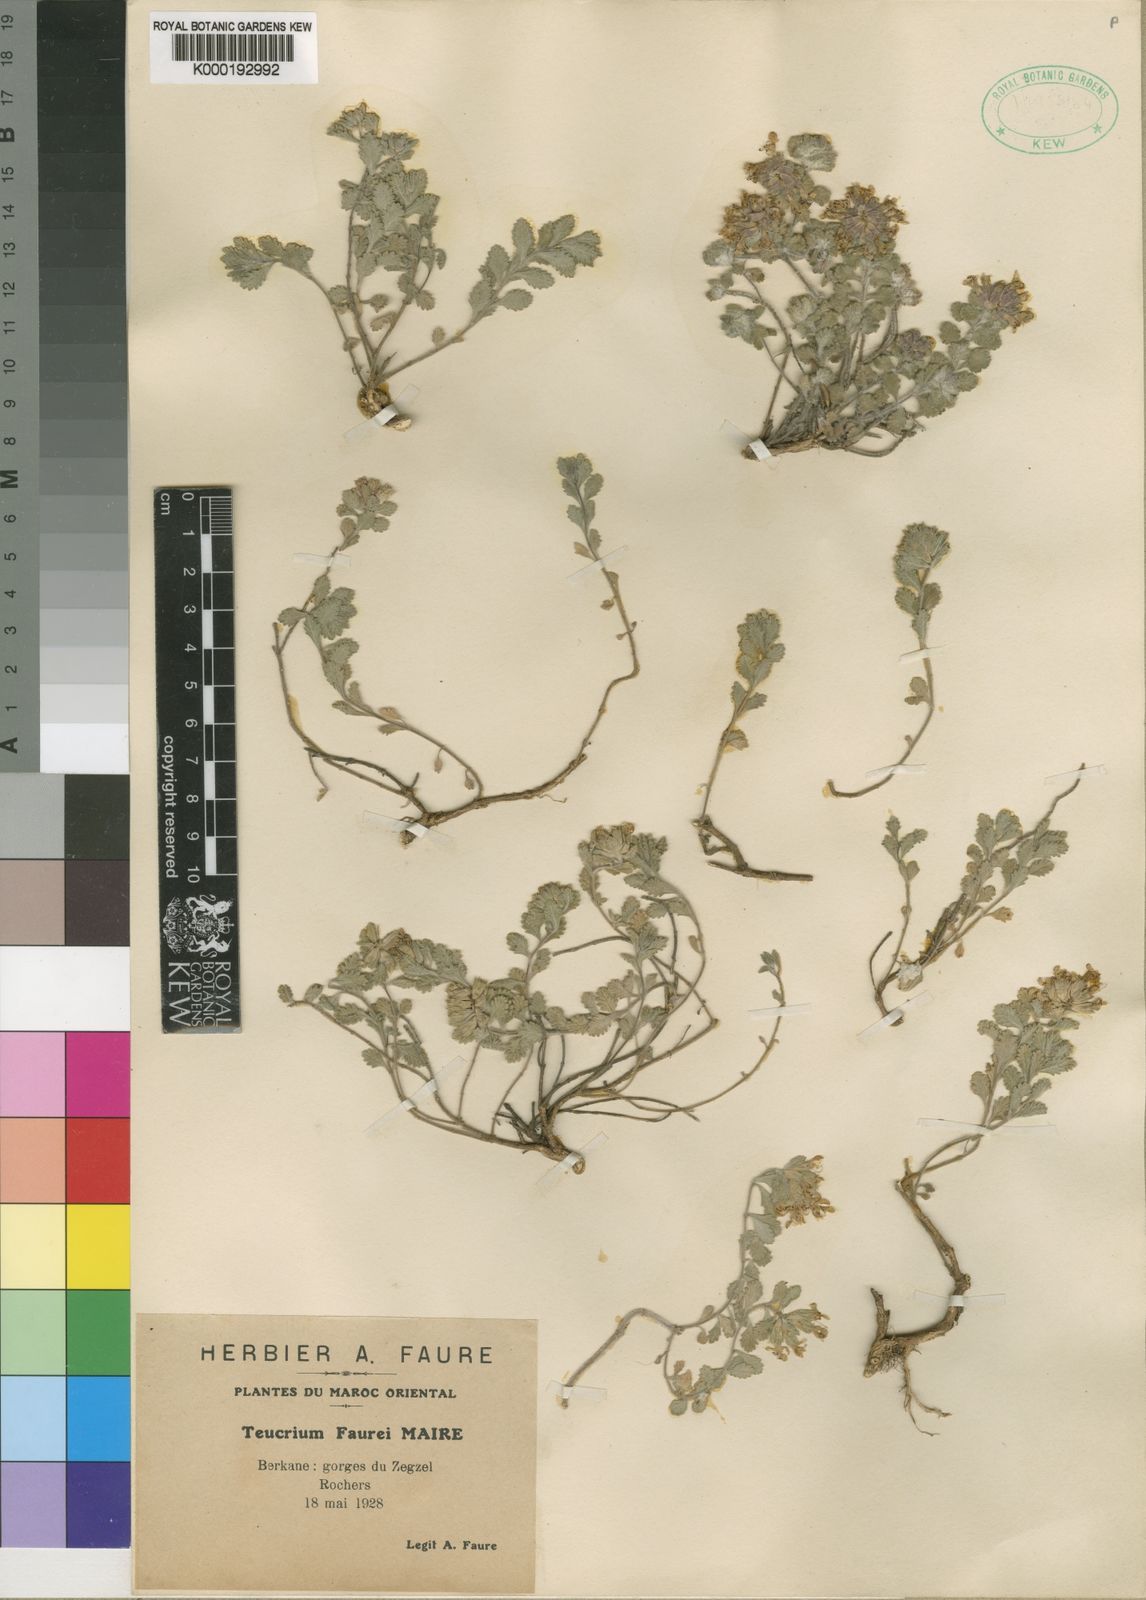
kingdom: Plantae
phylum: Tracheophyta
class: Magnoliopsida
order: Lamiales
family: Lamiaceae
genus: Teucrium
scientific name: Teucrium faurei
